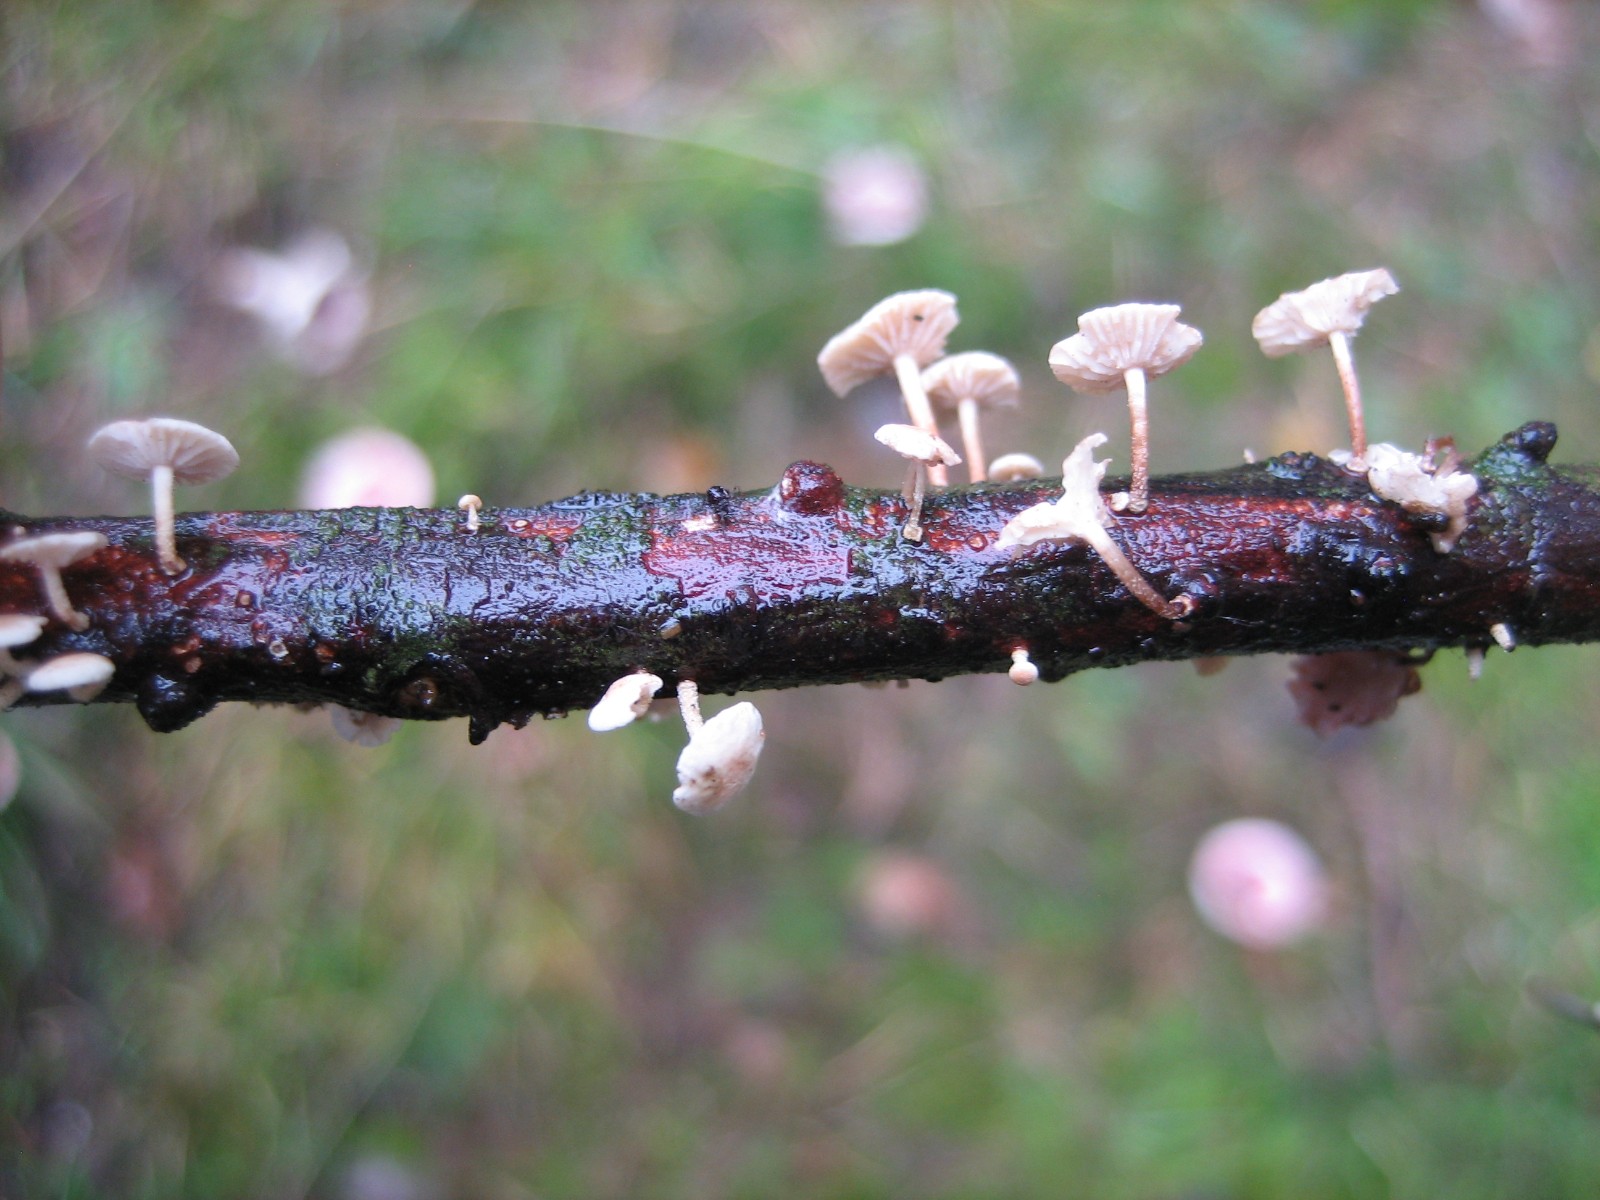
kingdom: Fungi
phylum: Basidiomycota
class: Agaricomycetes
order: Agaricales
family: Omphalotaceae
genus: Collybiopsis
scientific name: Collybiopsis ramealis
